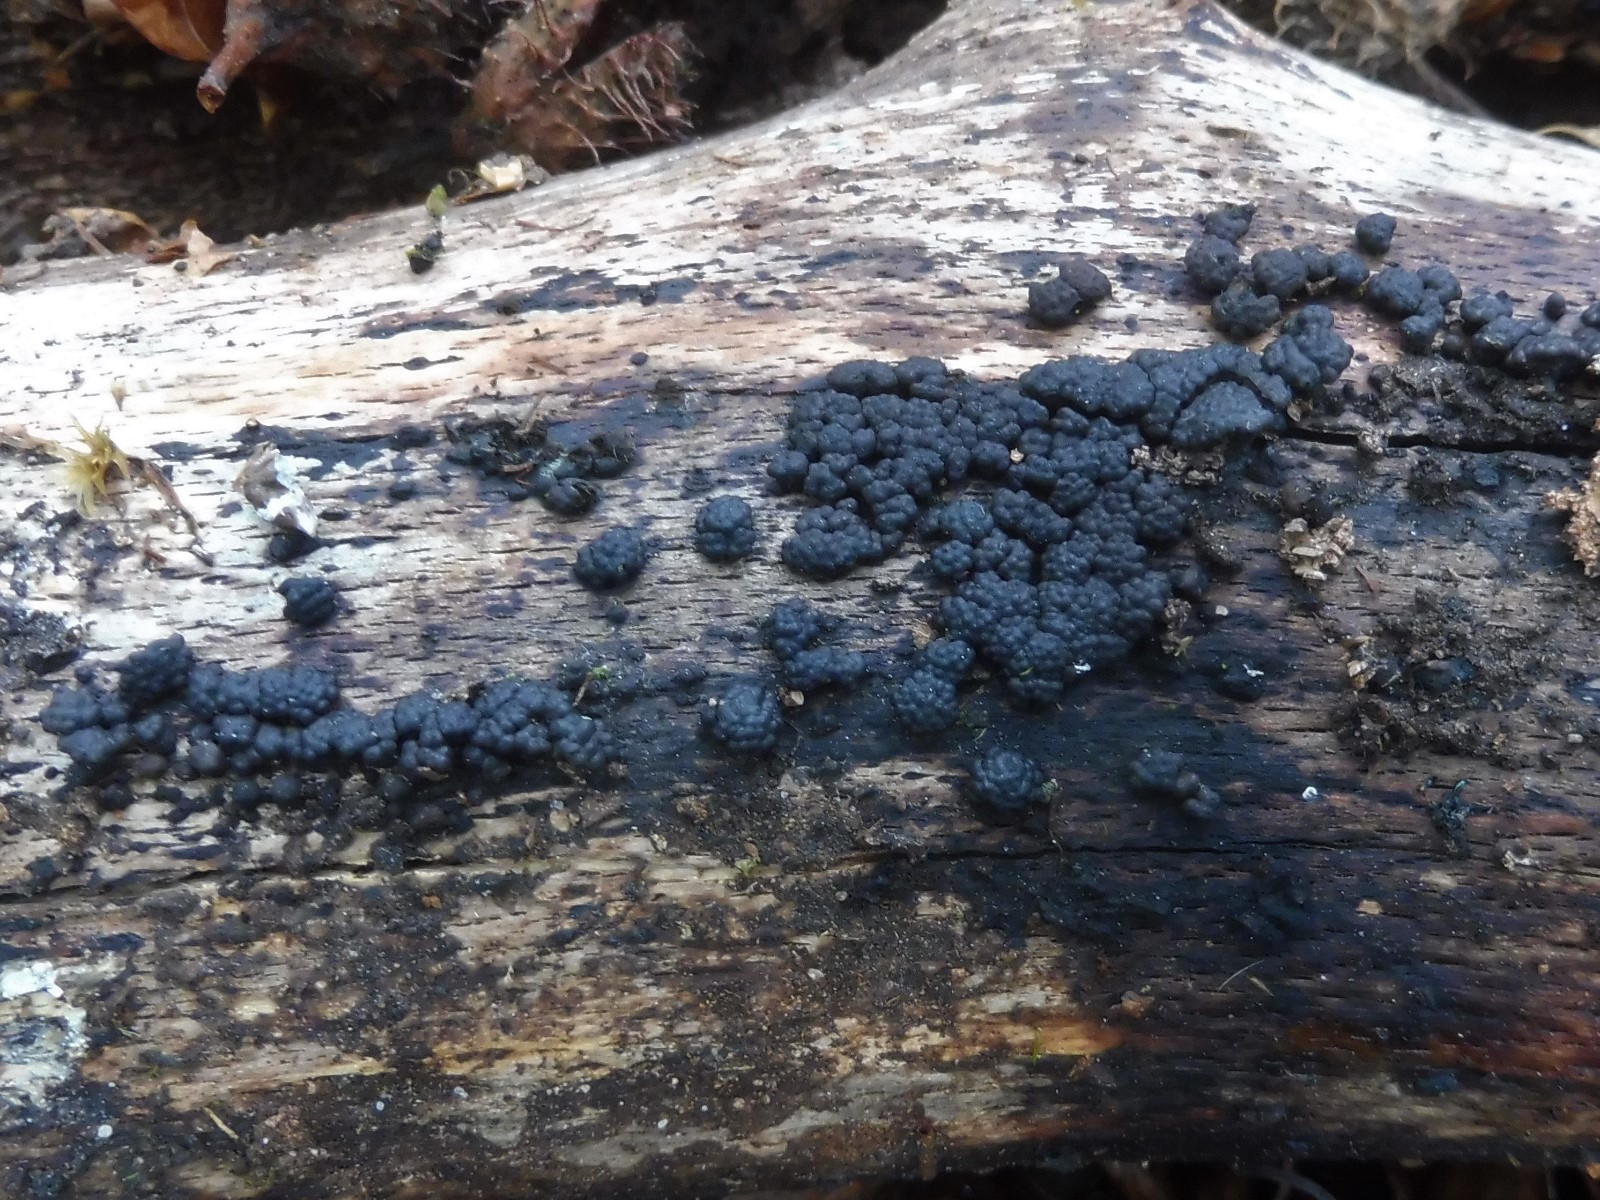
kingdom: Fungi
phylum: Ascomycota
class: Sordariomycetes
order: Xylariales
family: Hypoxylaceae
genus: Jackrogersella
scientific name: Jackrogersella cohaerens
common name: sammenflydende kulbær
